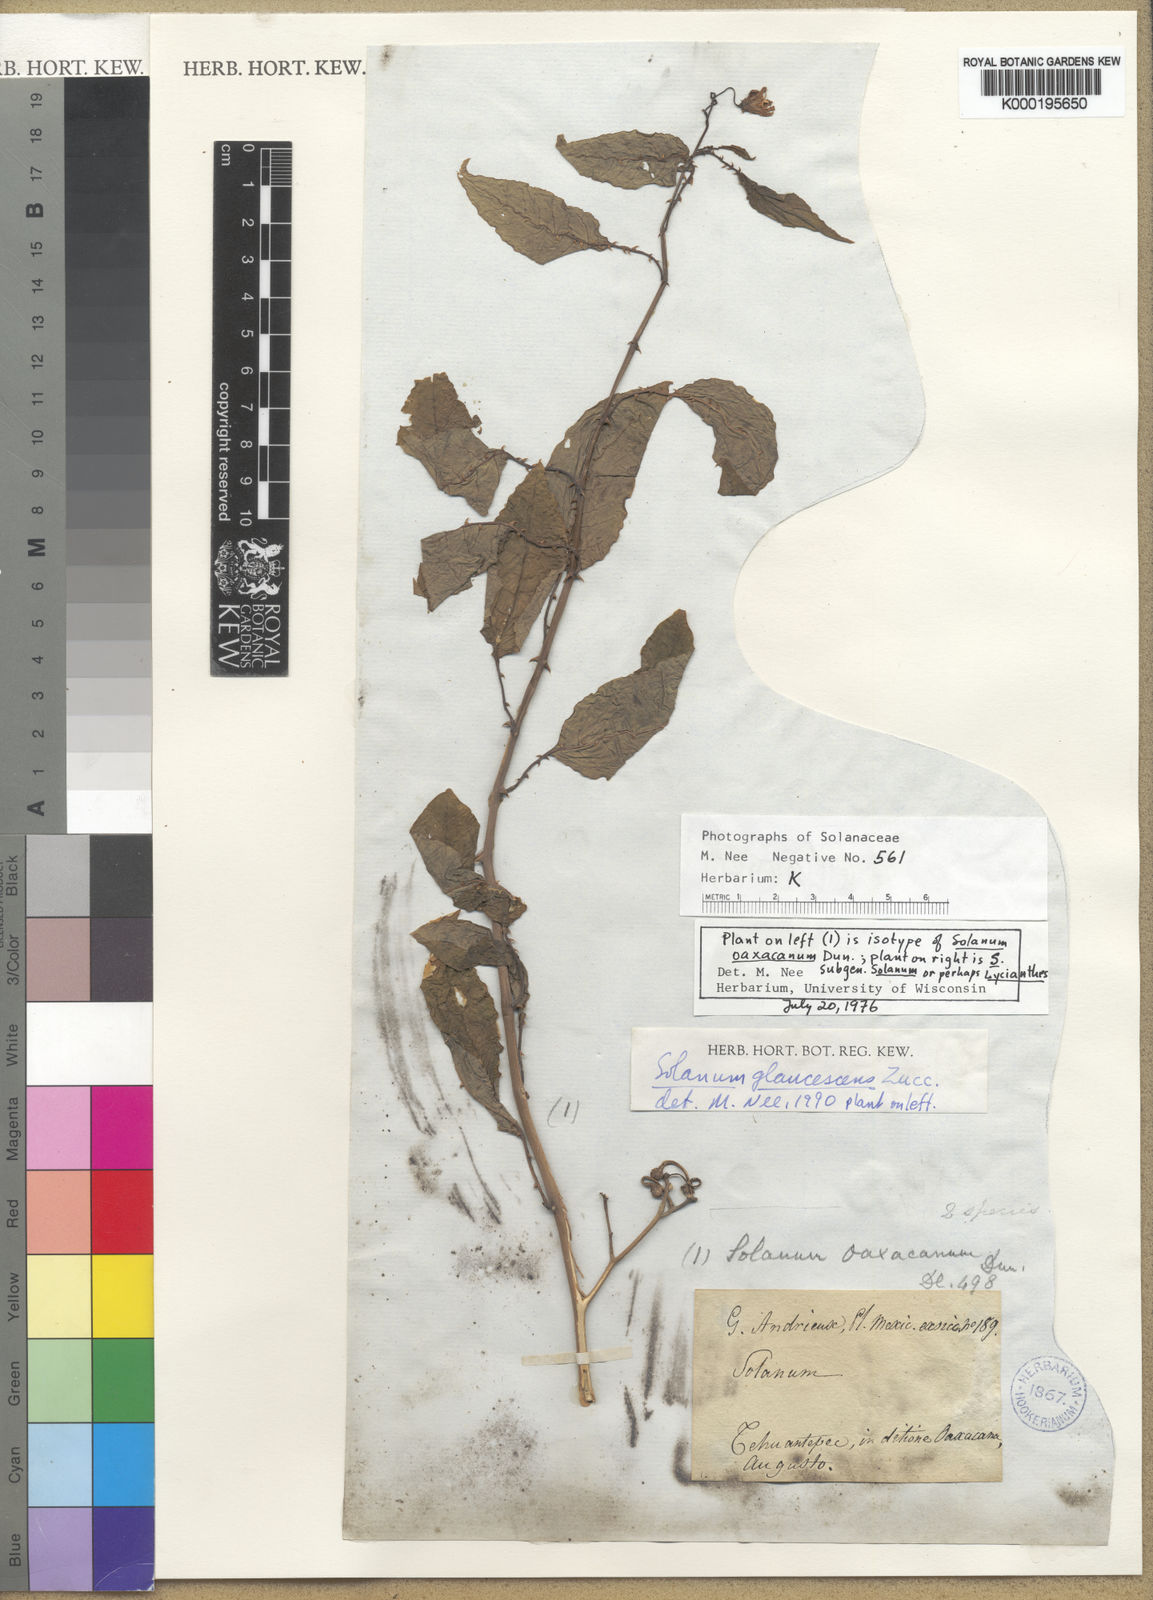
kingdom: Plantae
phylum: Tracheophyta
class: Magnoliopsida
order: Solanales
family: Solanaceae
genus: Solanum
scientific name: Solanum glaucescens
